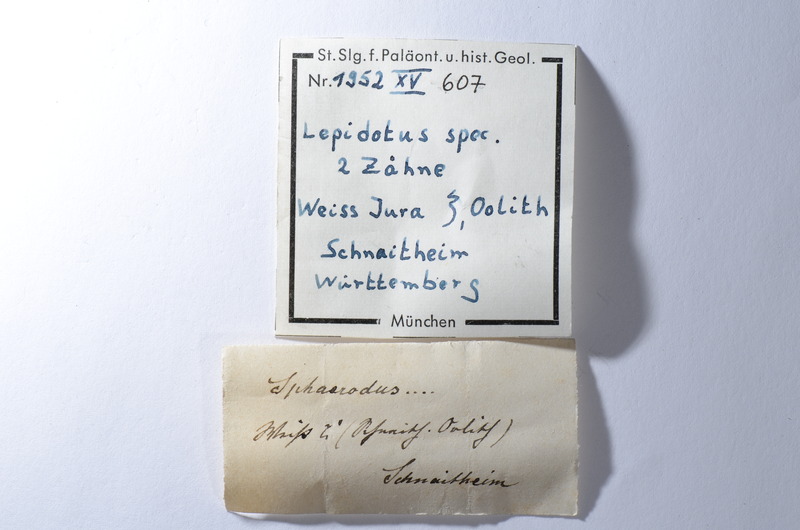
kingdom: Animalia
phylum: Chordata
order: Lepisosteiformes
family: Lepidotidae
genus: Lepidotes
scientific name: Lepidotes
